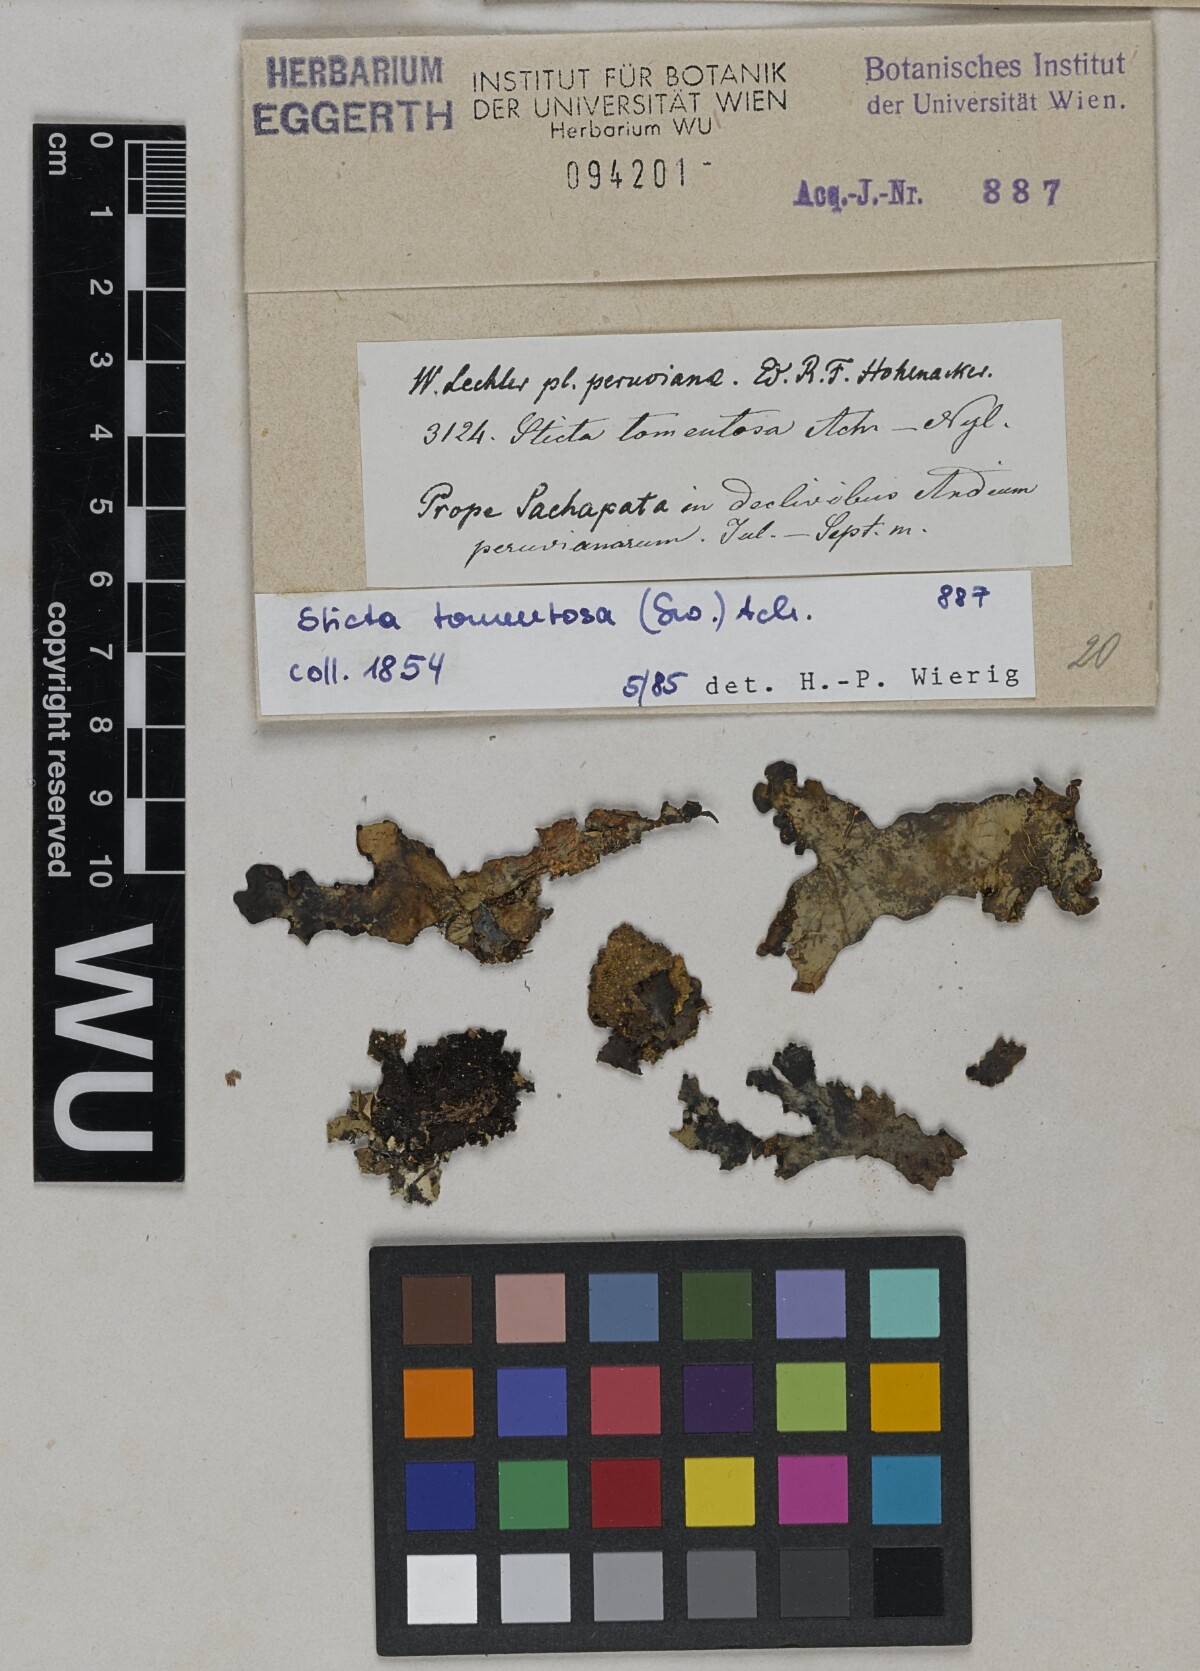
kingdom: Fungi
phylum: Ascomycota
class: Lecanoromycetes
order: Peltigerales
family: Lobariaceae
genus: Sticta
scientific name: Sticta tomentosa
